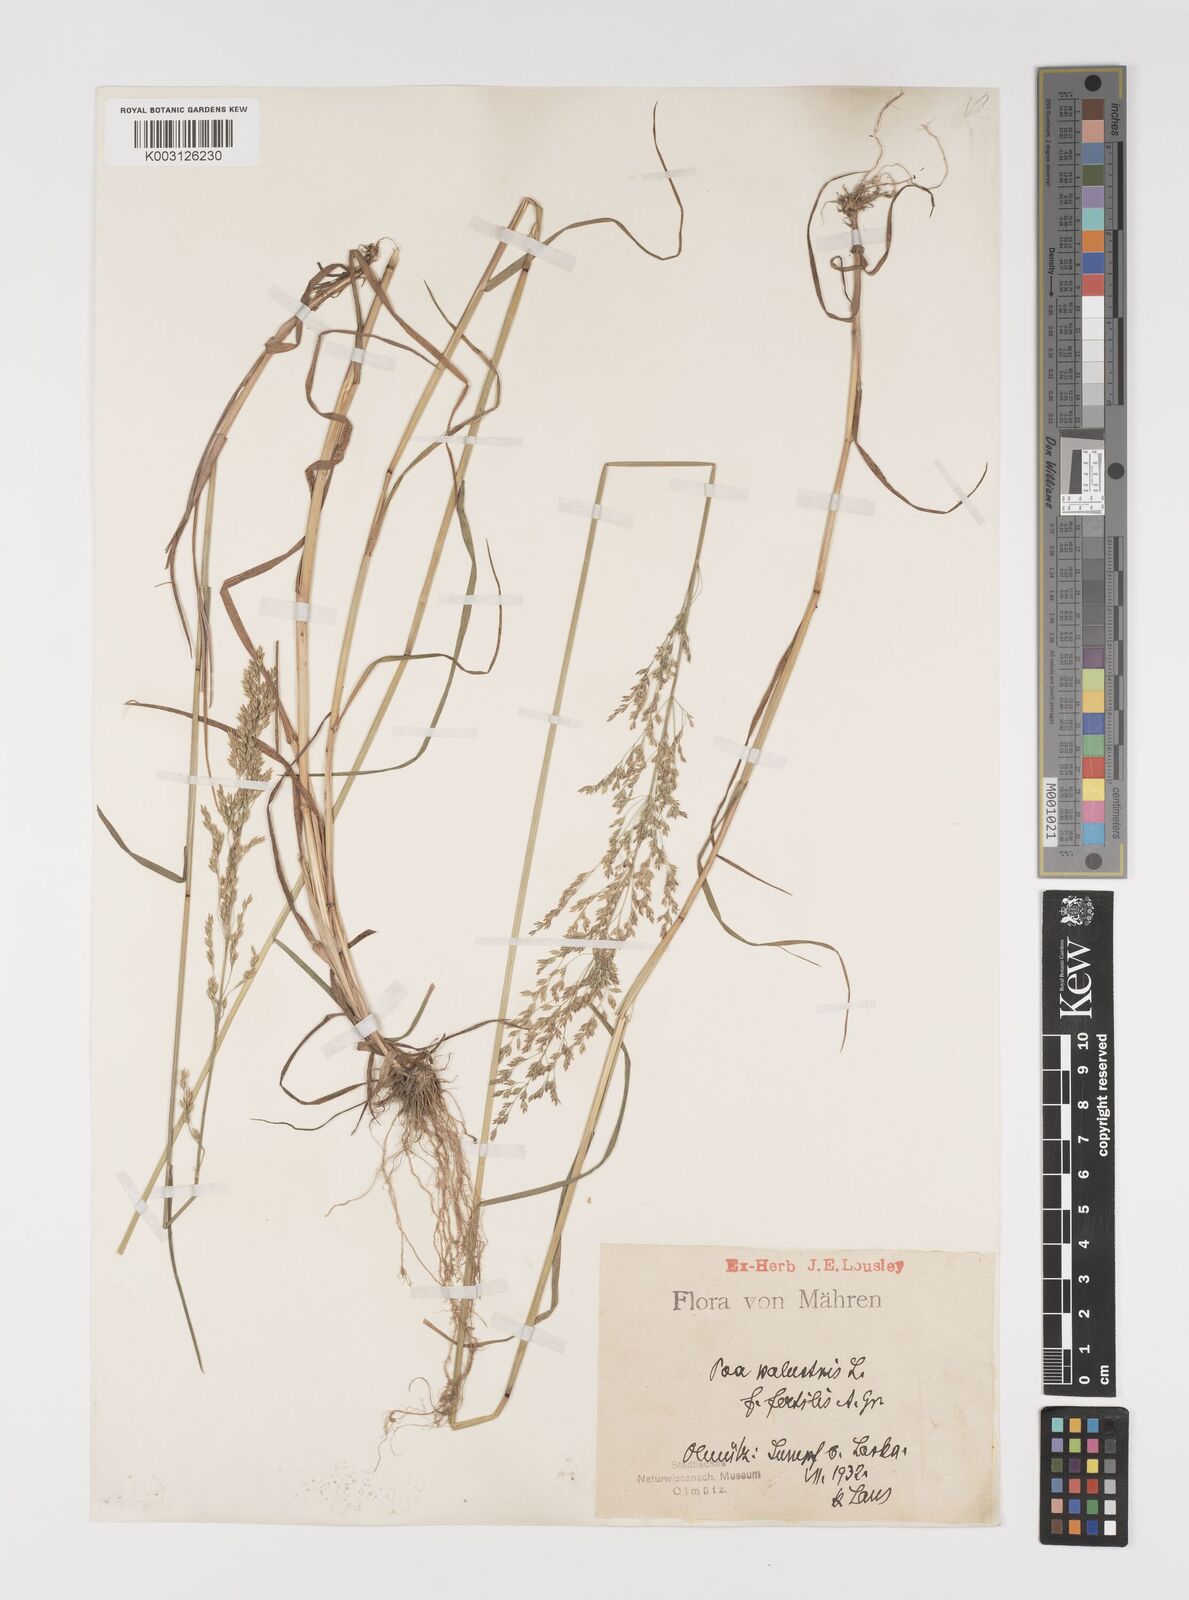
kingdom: Plantae
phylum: Tracheophyta
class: Liliopsida
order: Poales
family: Poaceae
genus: Poa
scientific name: Poa palustris
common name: Swamp meadow-grass
